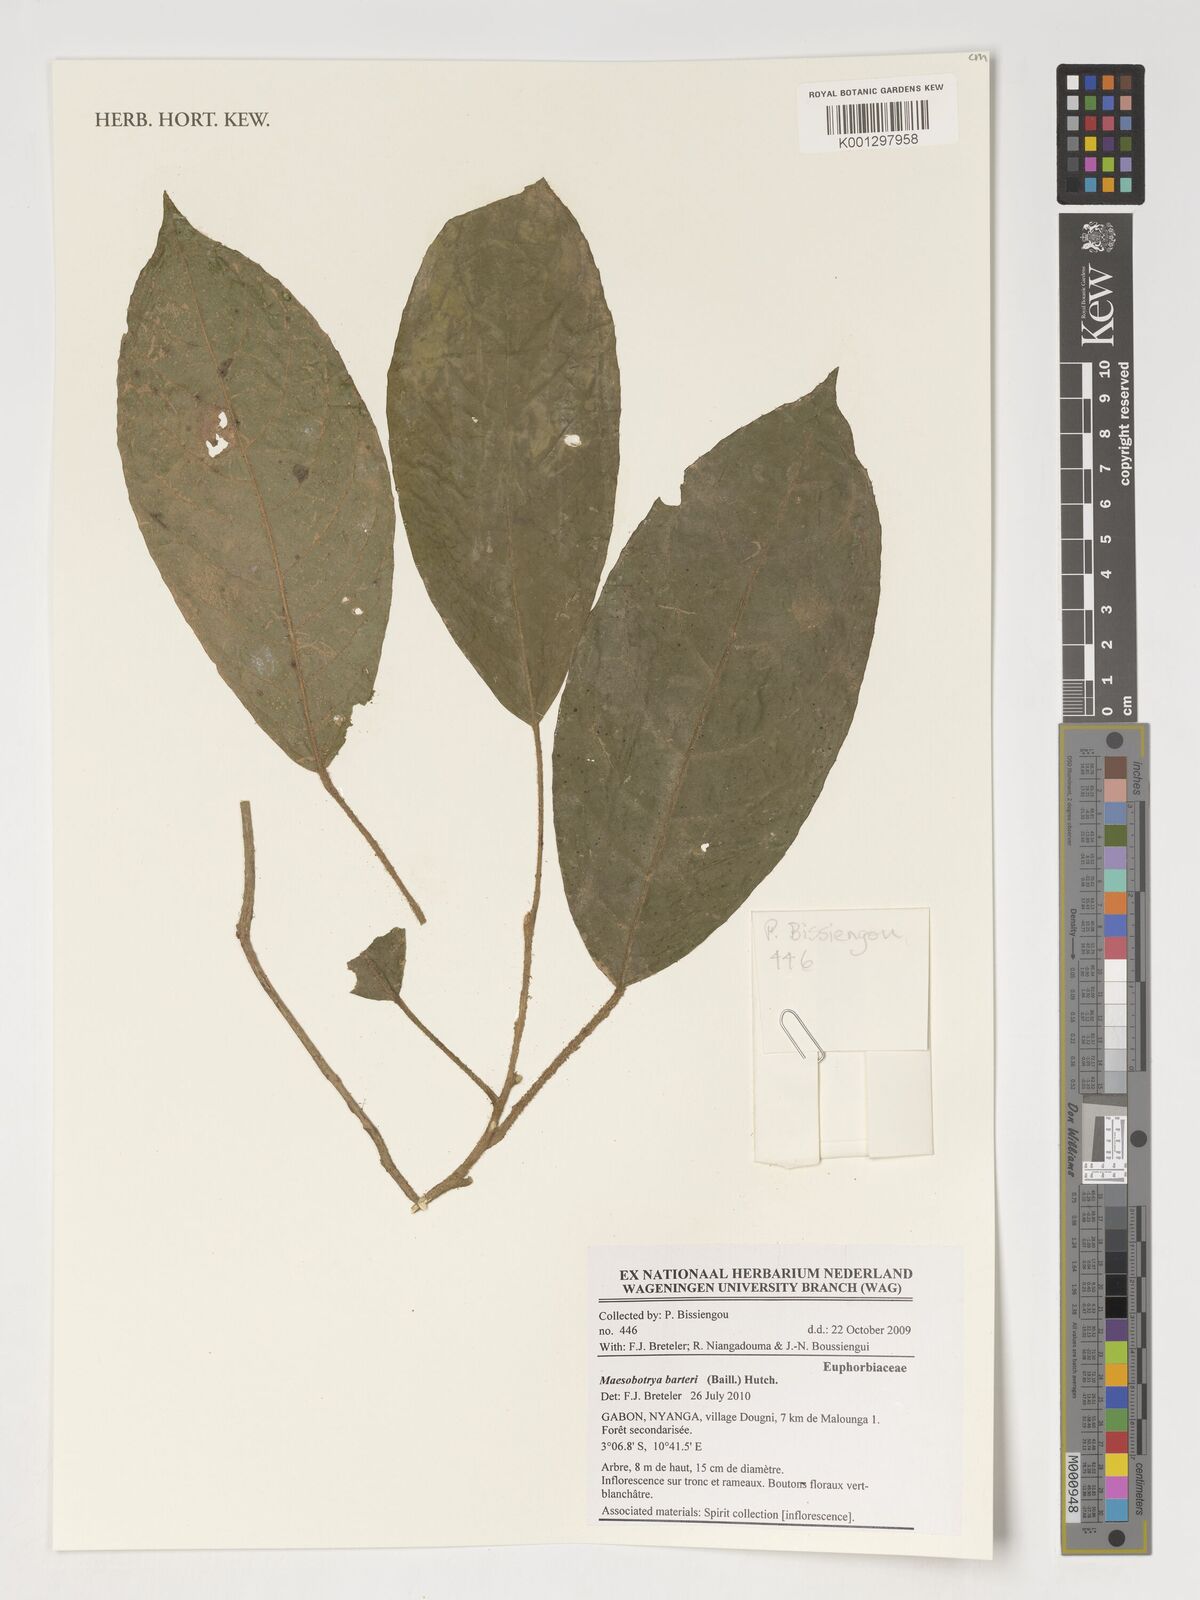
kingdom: Plantae
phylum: Tracheophyta
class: Magnoliopsida
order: Malpighiales
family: Phyllanthaceae
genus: Maesobotrya
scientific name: Maesobotrya barteri
